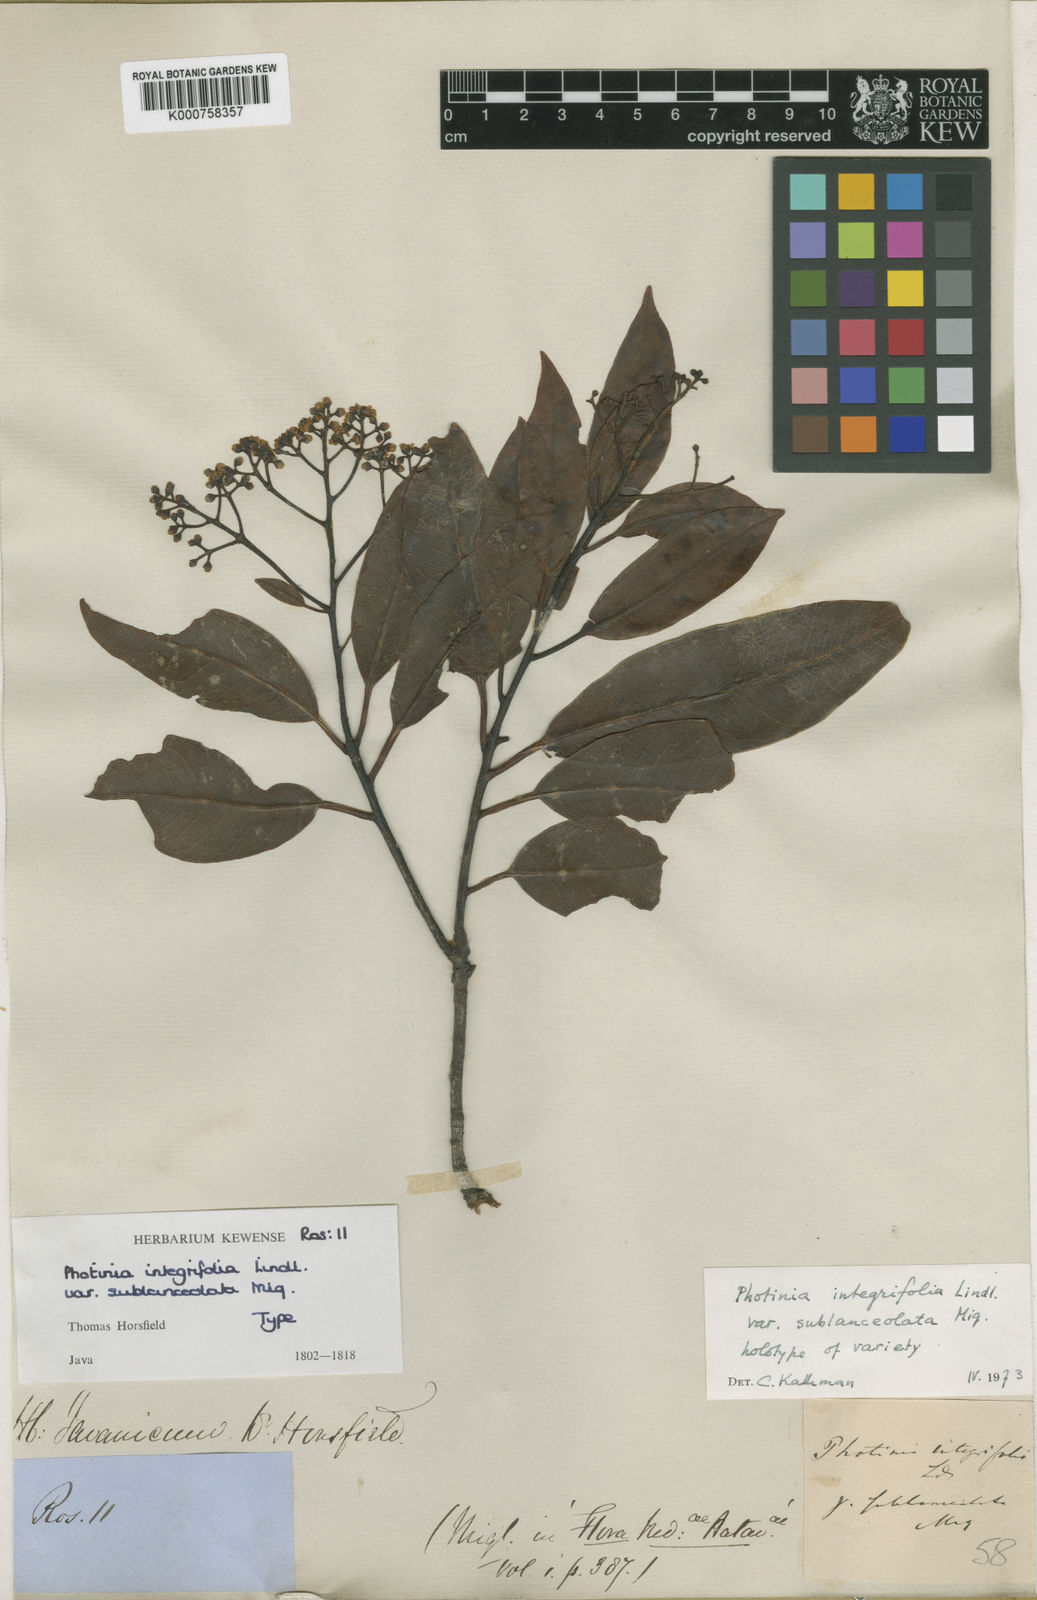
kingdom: Plantae
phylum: Tracheophyta
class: Magnoliopsida
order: Rosales
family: Rosaceae
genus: Photinia
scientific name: Photinia integrifolia
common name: Himalayan chokeberry
